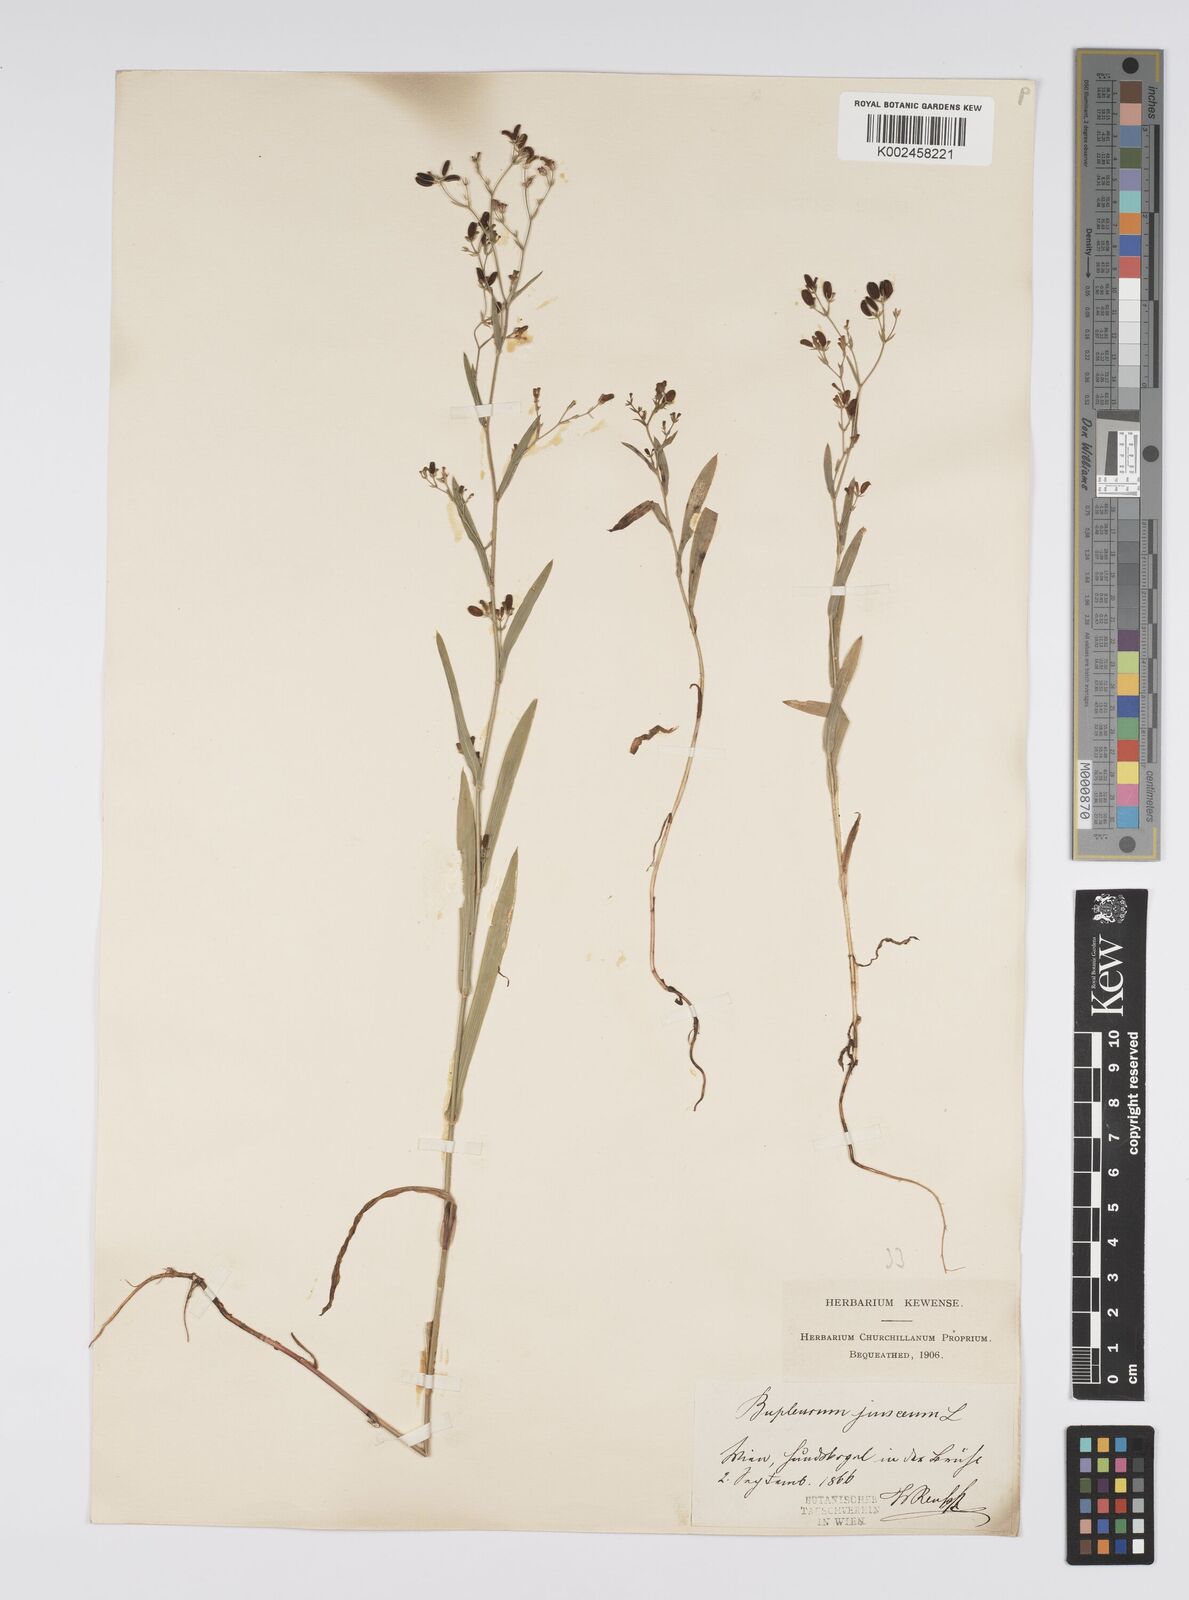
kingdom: Plantae
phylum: Tracheophyta
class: Magnoliopsida
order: Apiales
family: Apiaceae
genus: Bupleurum
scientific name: Bupleurum praealtum
